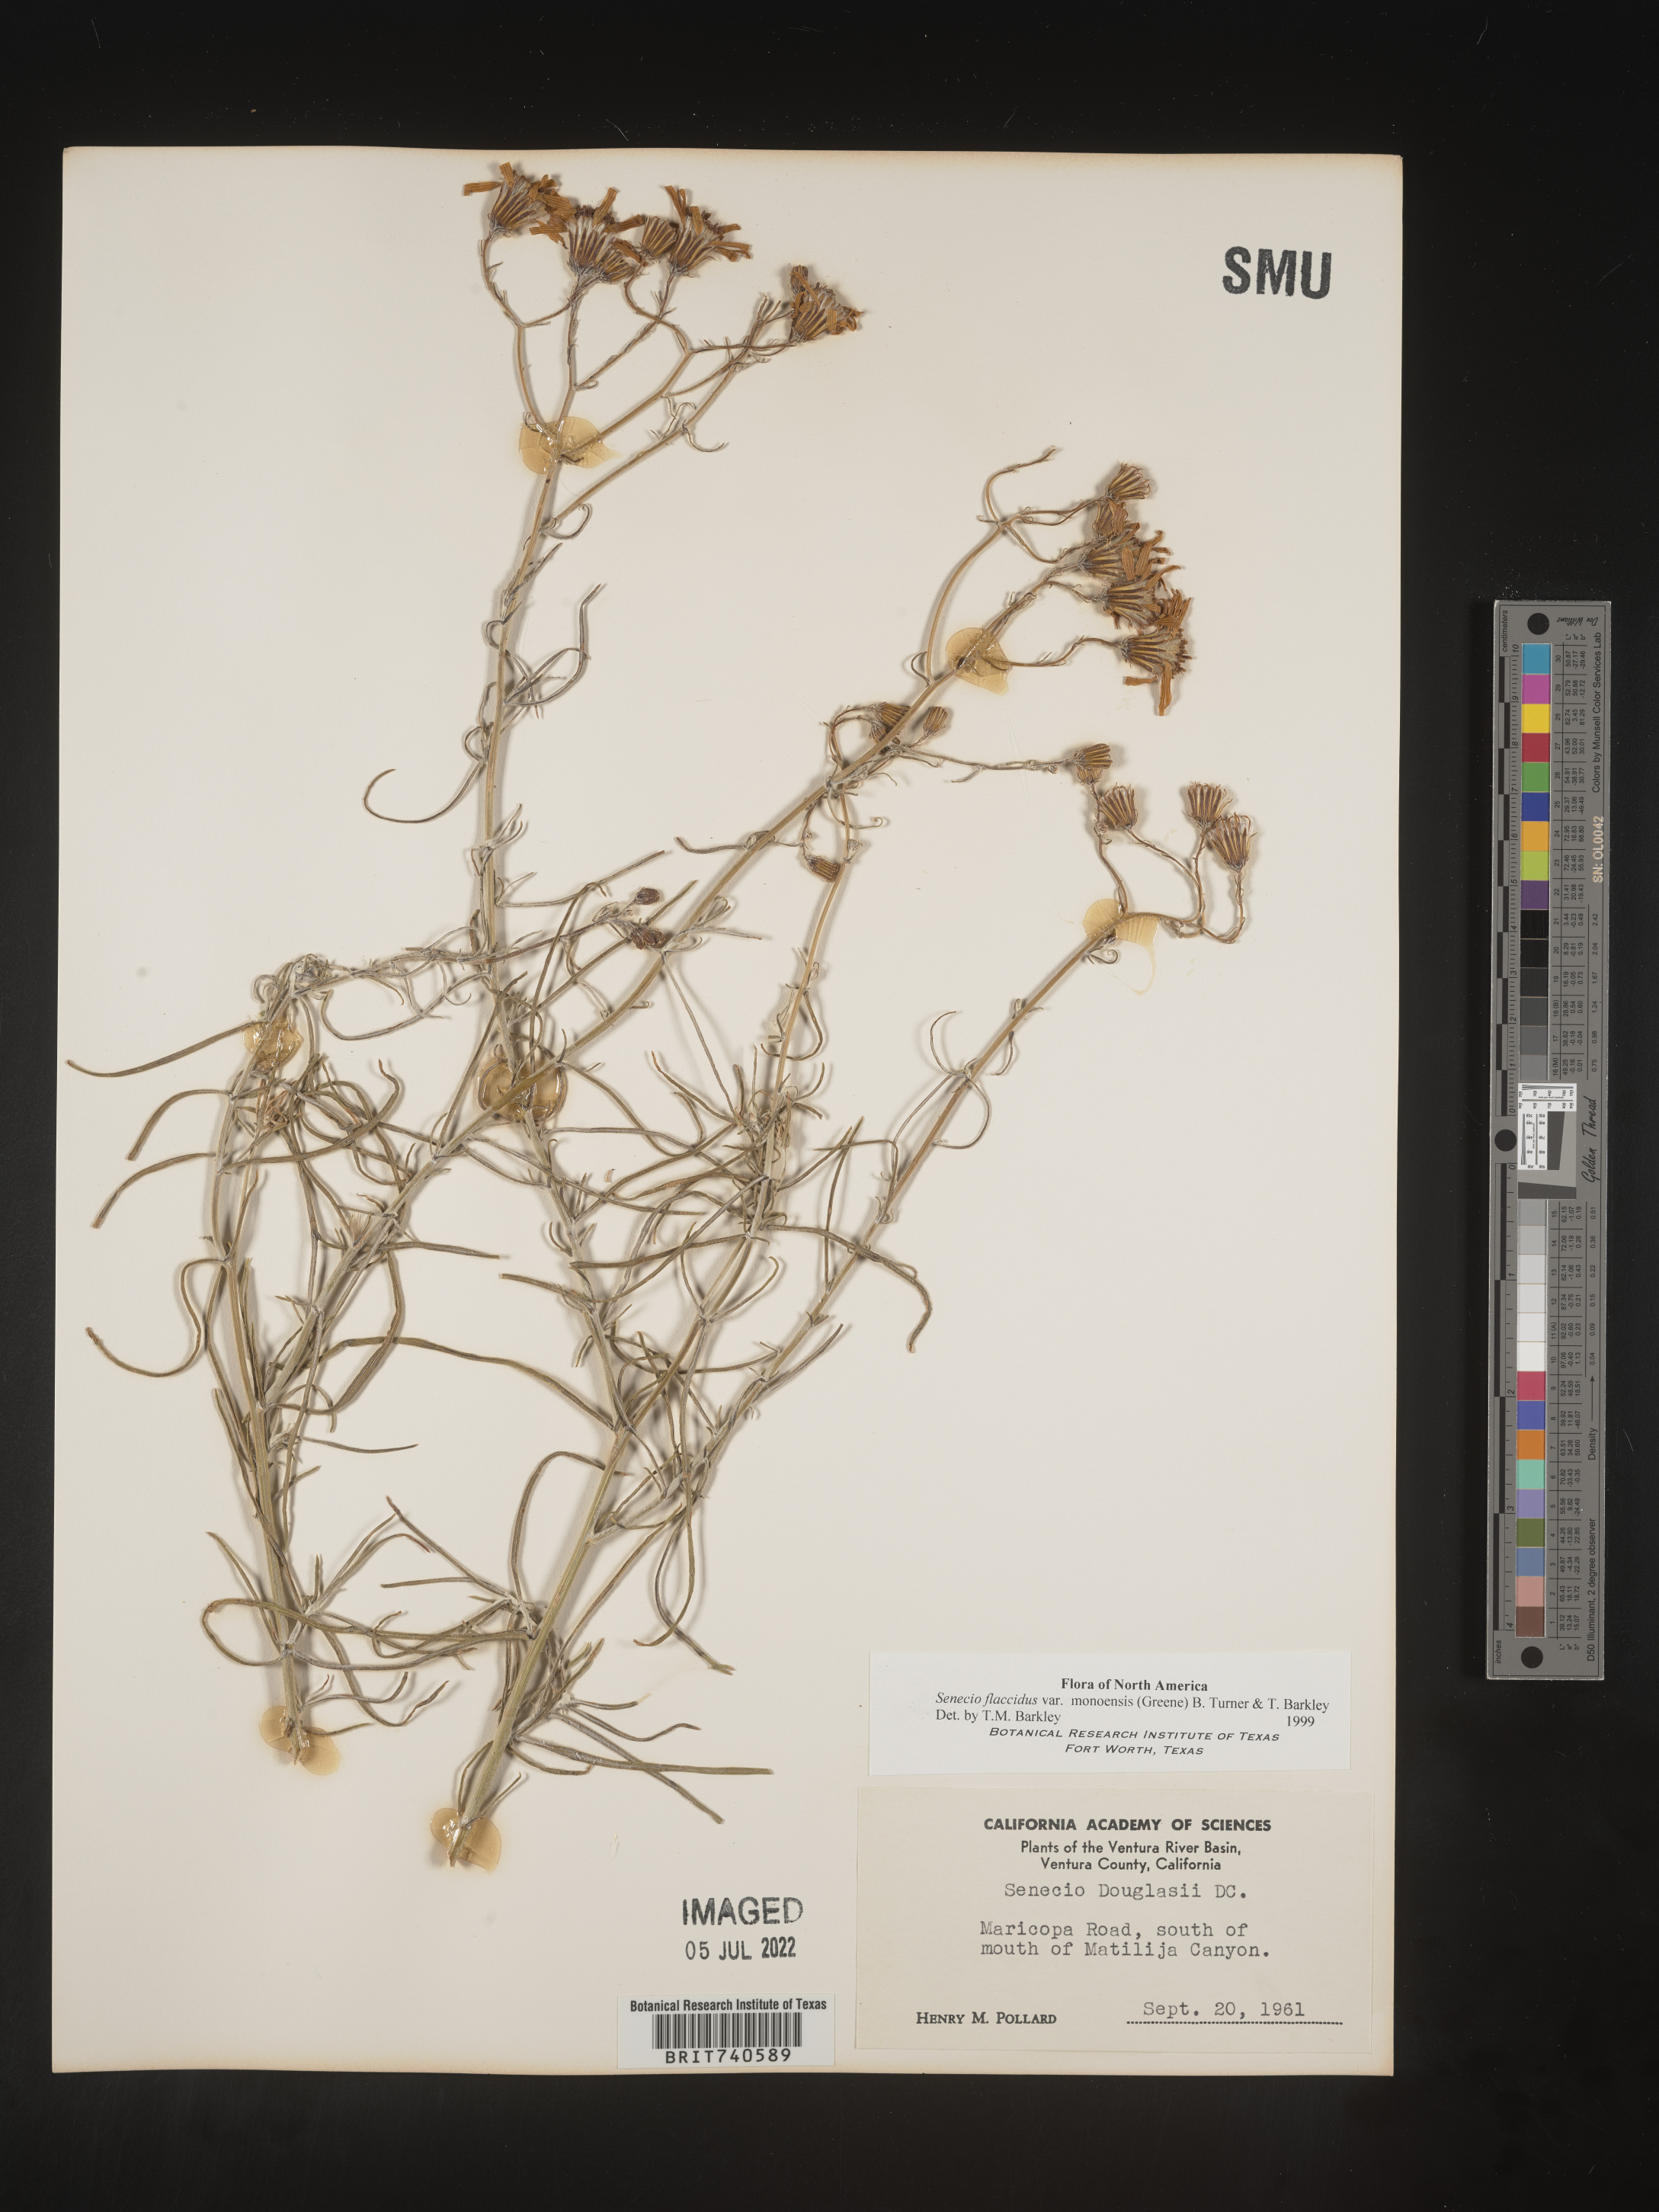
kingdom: Plantae
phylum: Tracheophyta
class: Magnoliopsida
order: Asterales
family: Asteraceae
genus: Senecio
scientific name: Senecio flaccidus
